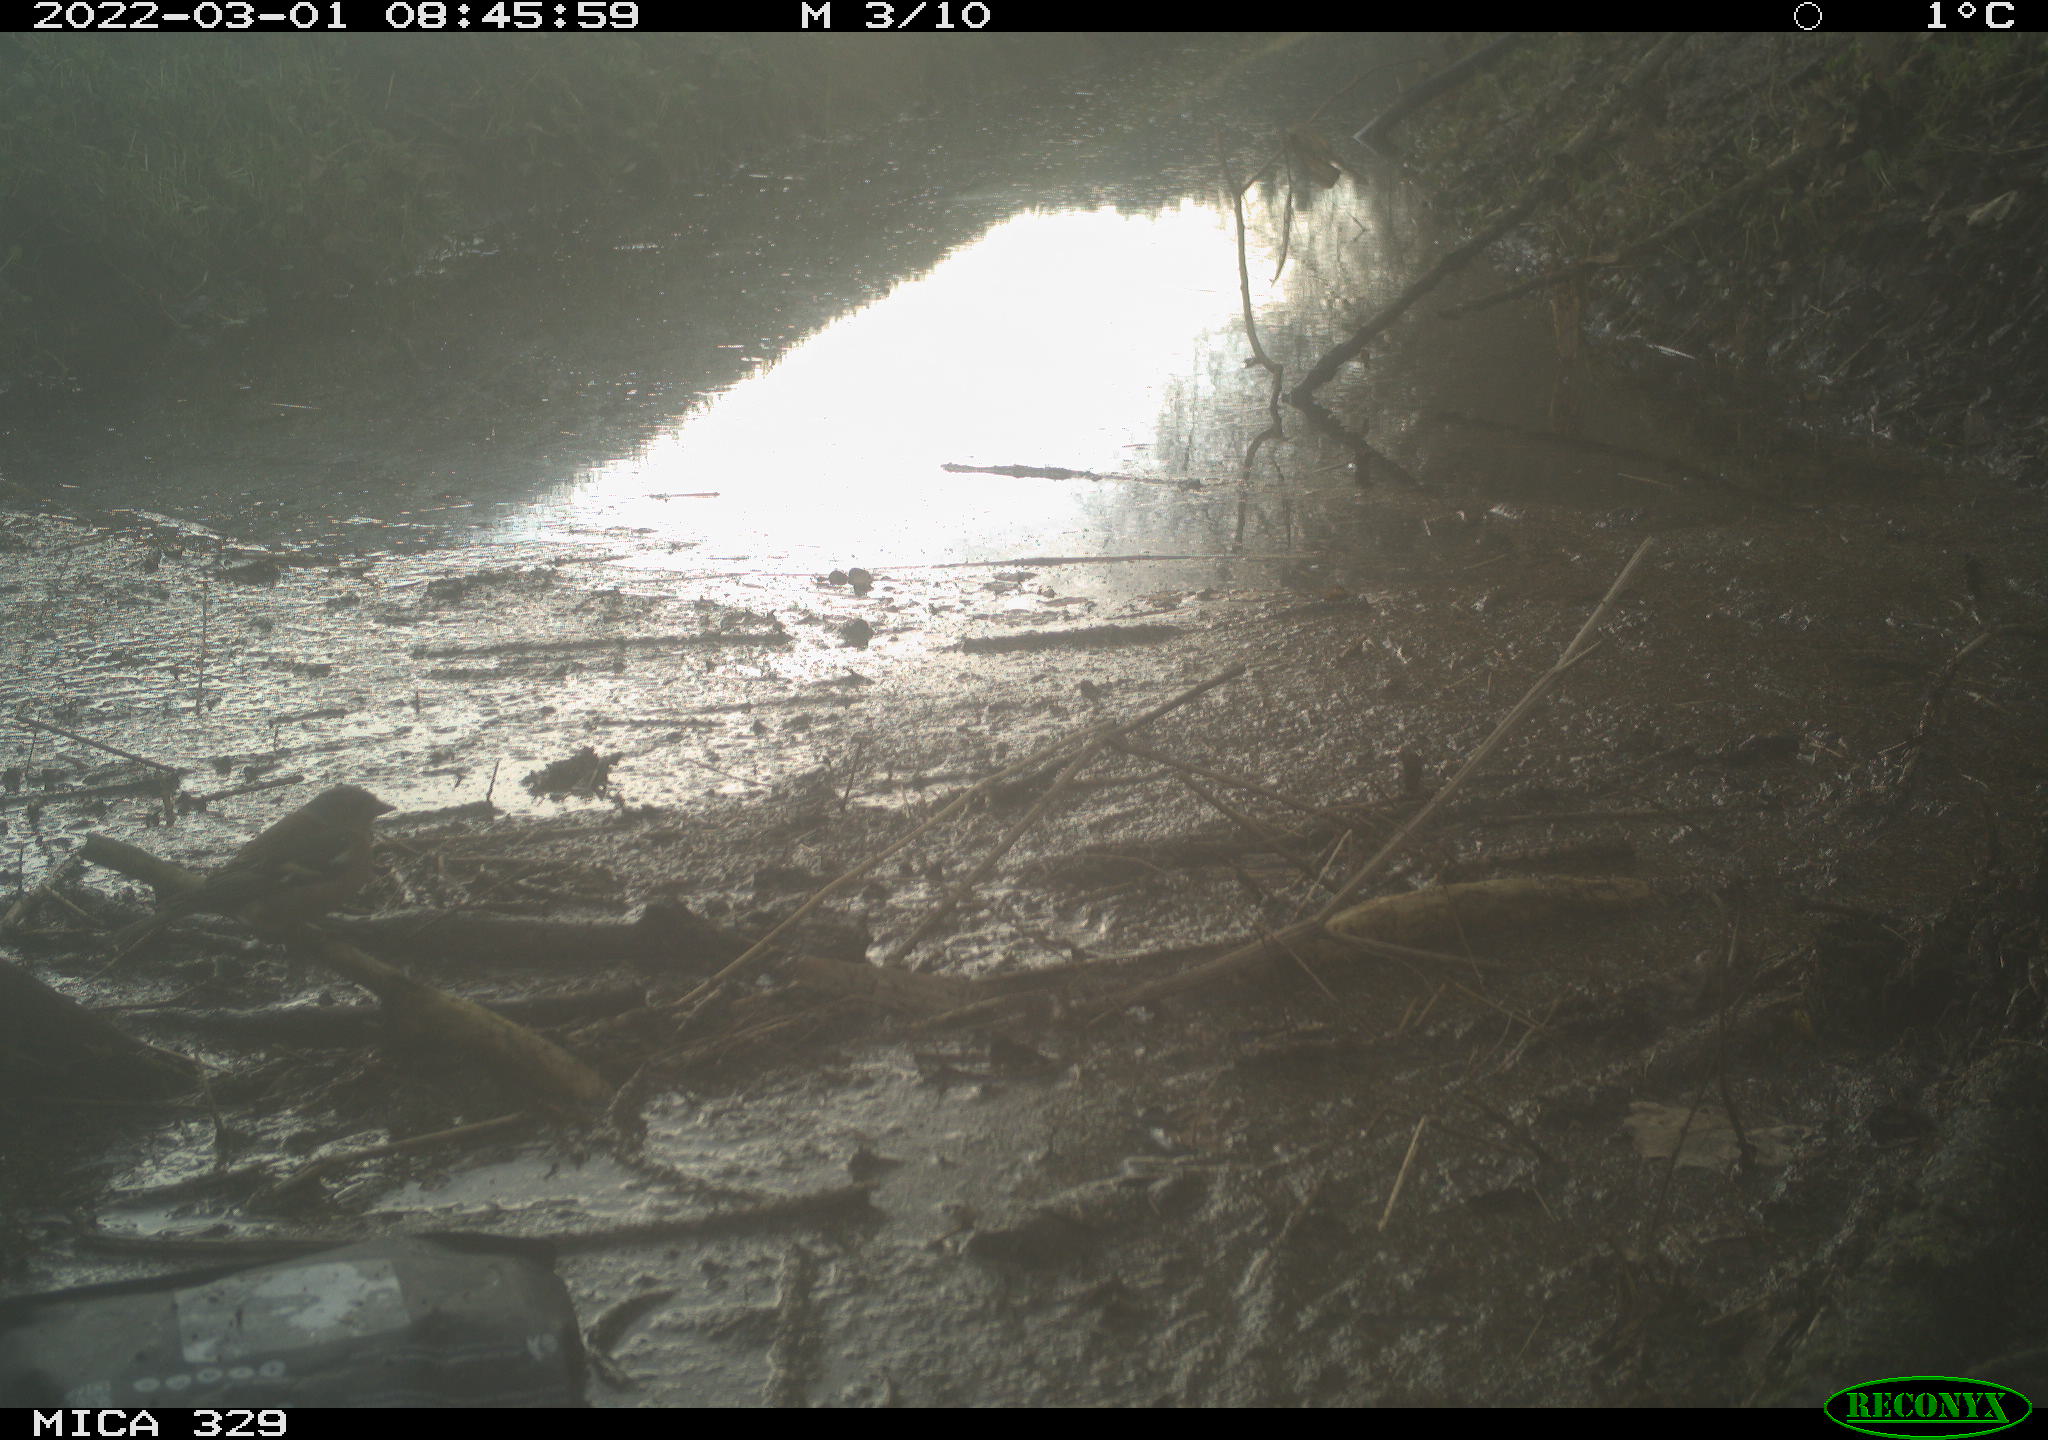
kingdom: Animalia
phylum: Chordata
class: Aves
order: Passeriformes
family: Fringillidae
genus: Fringilla
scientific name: Fringilla coelebs
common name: Common chaffinch
